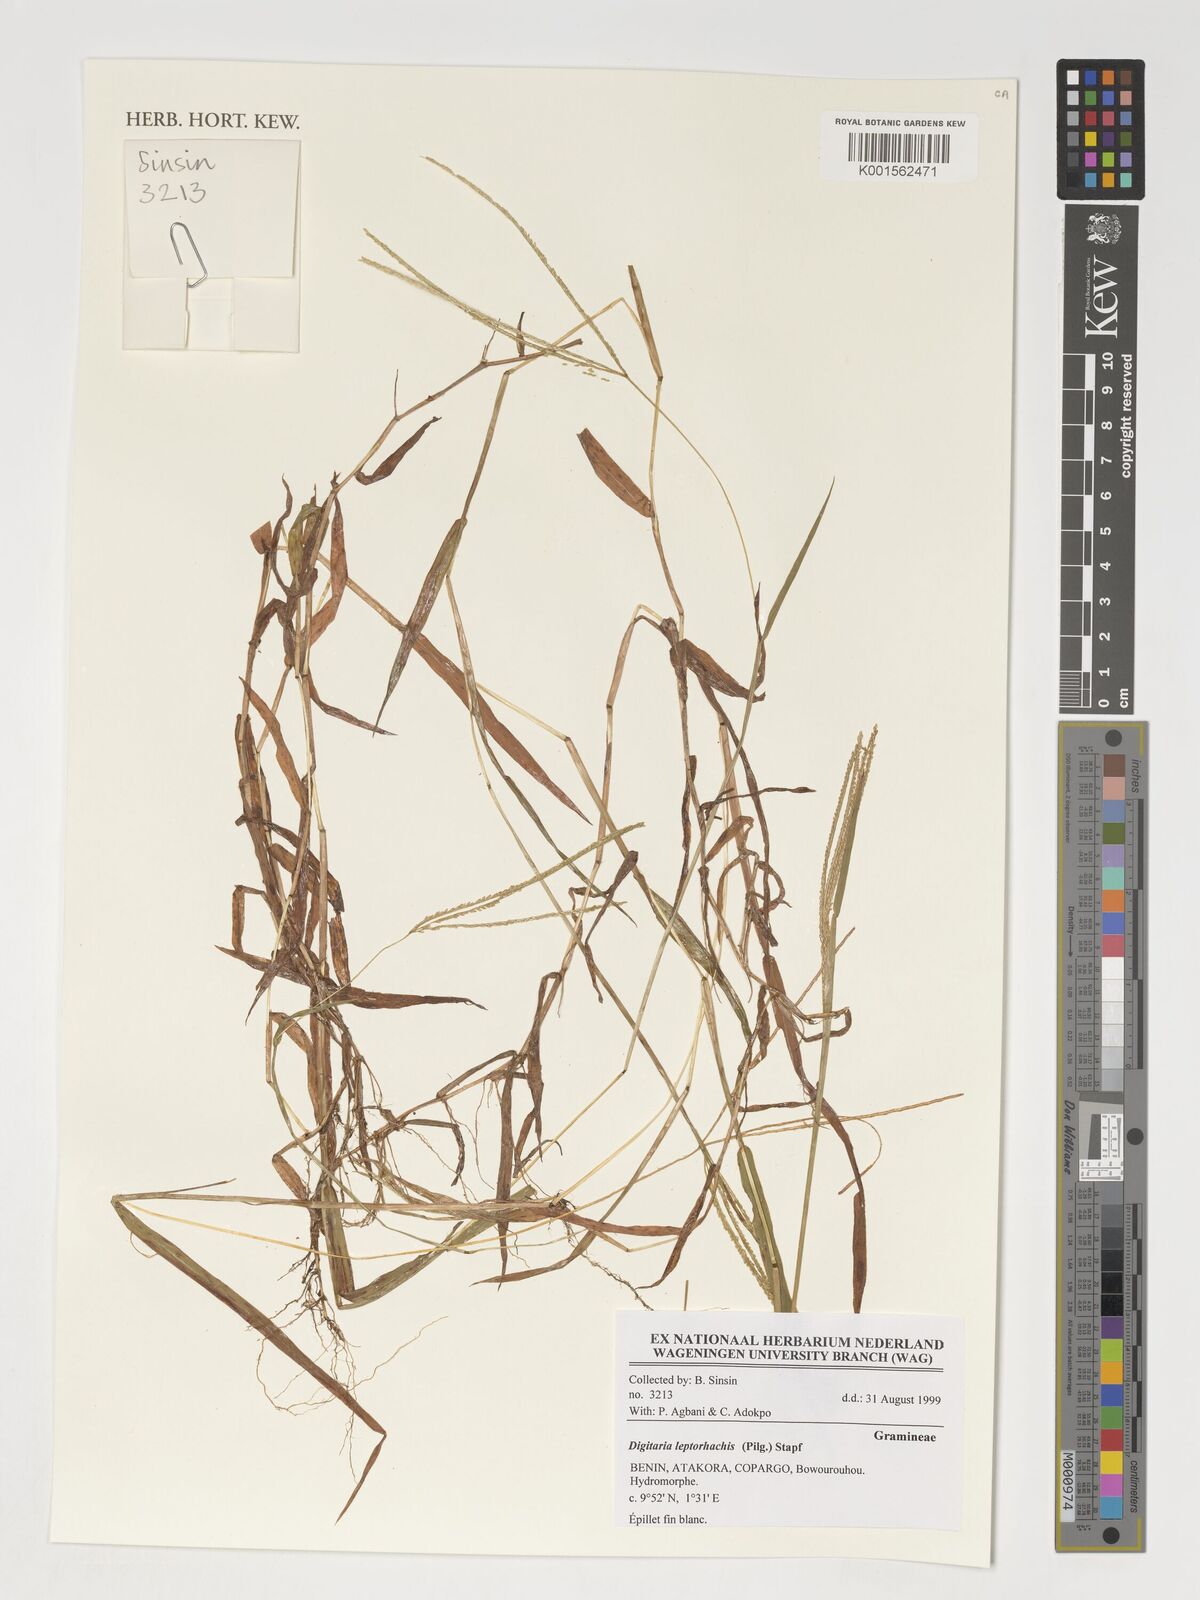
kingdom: Plantae
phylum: Tracheophyta
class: Liliopsida
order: Poales
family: Poaceae
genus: Digitaria
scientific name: Digitaria leptorhachis
